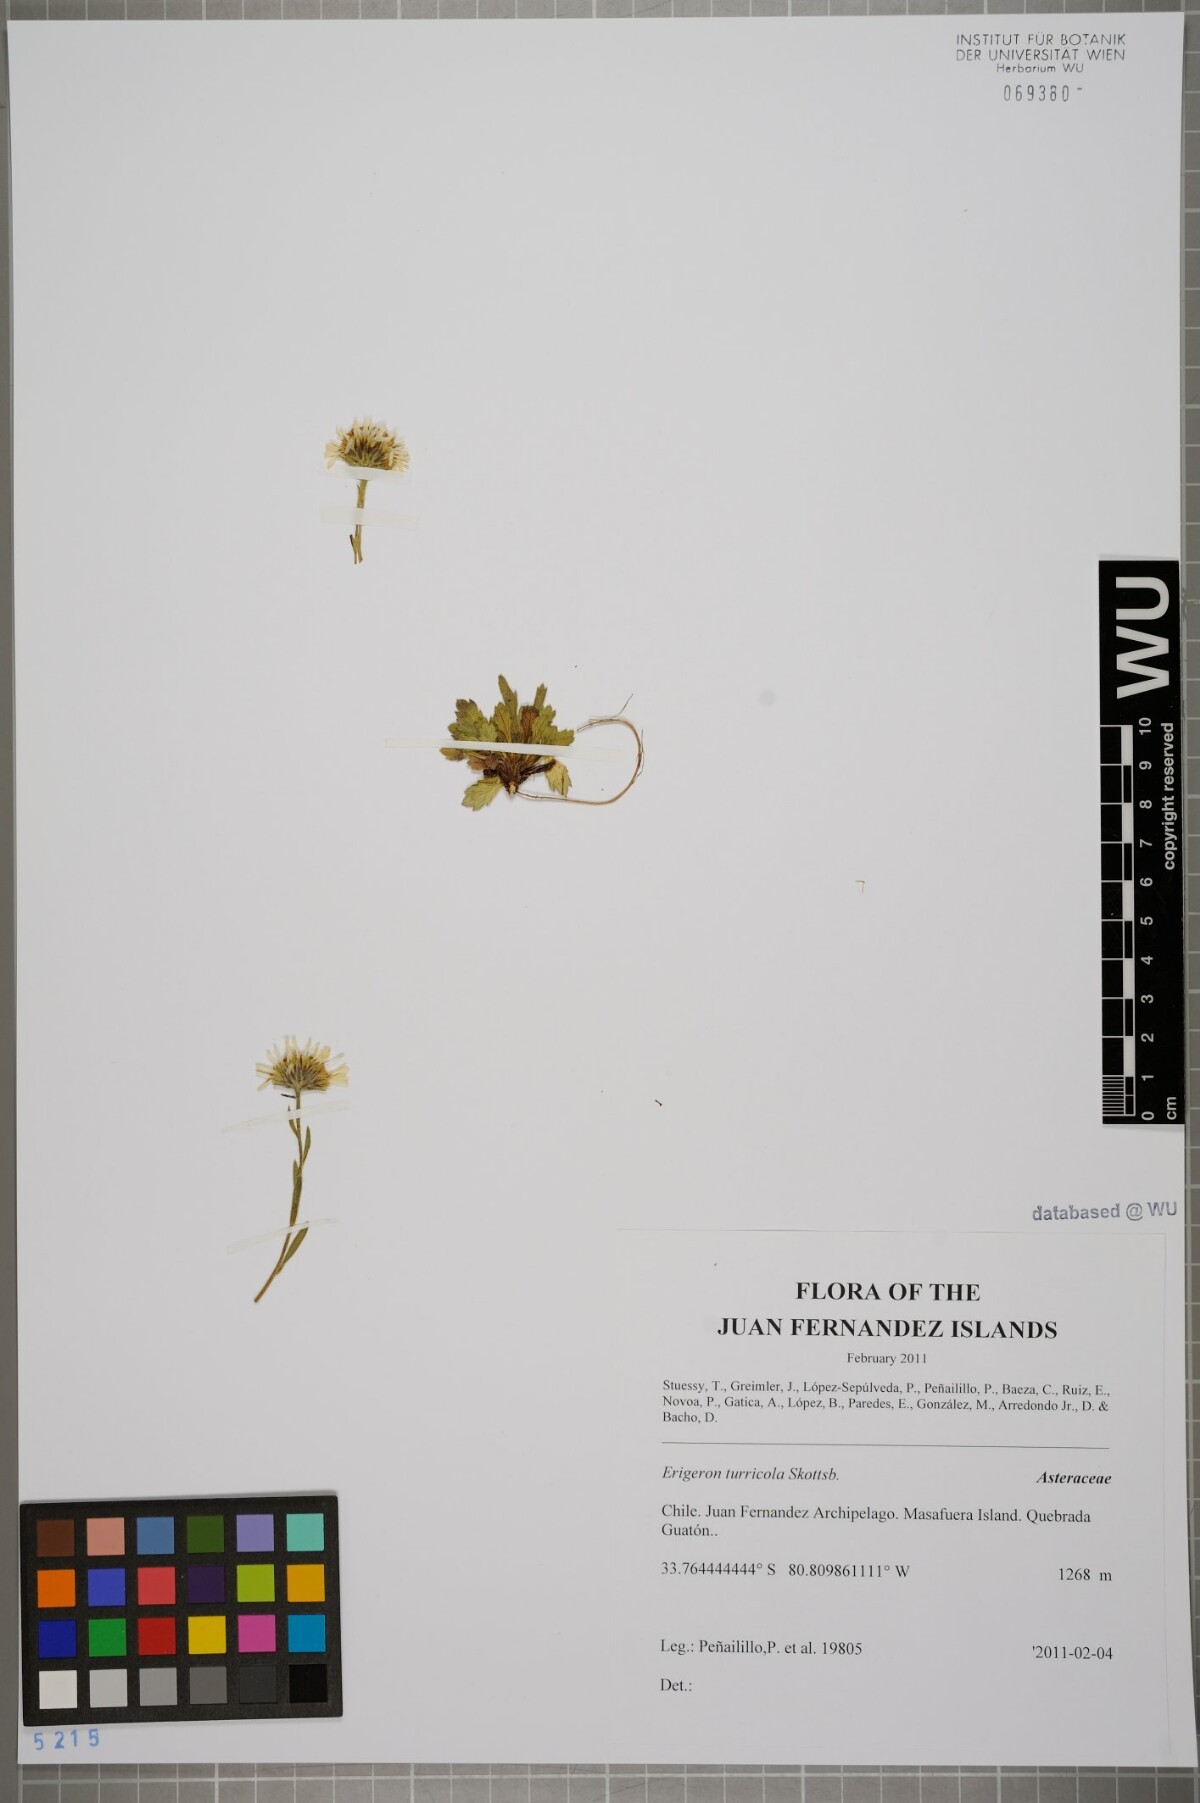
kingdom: Plantae
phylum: Tracheophyta
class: Magnoliopsida
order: Asterales
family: Asteraceae
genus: Erigeron
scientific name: Erigeron ingae
